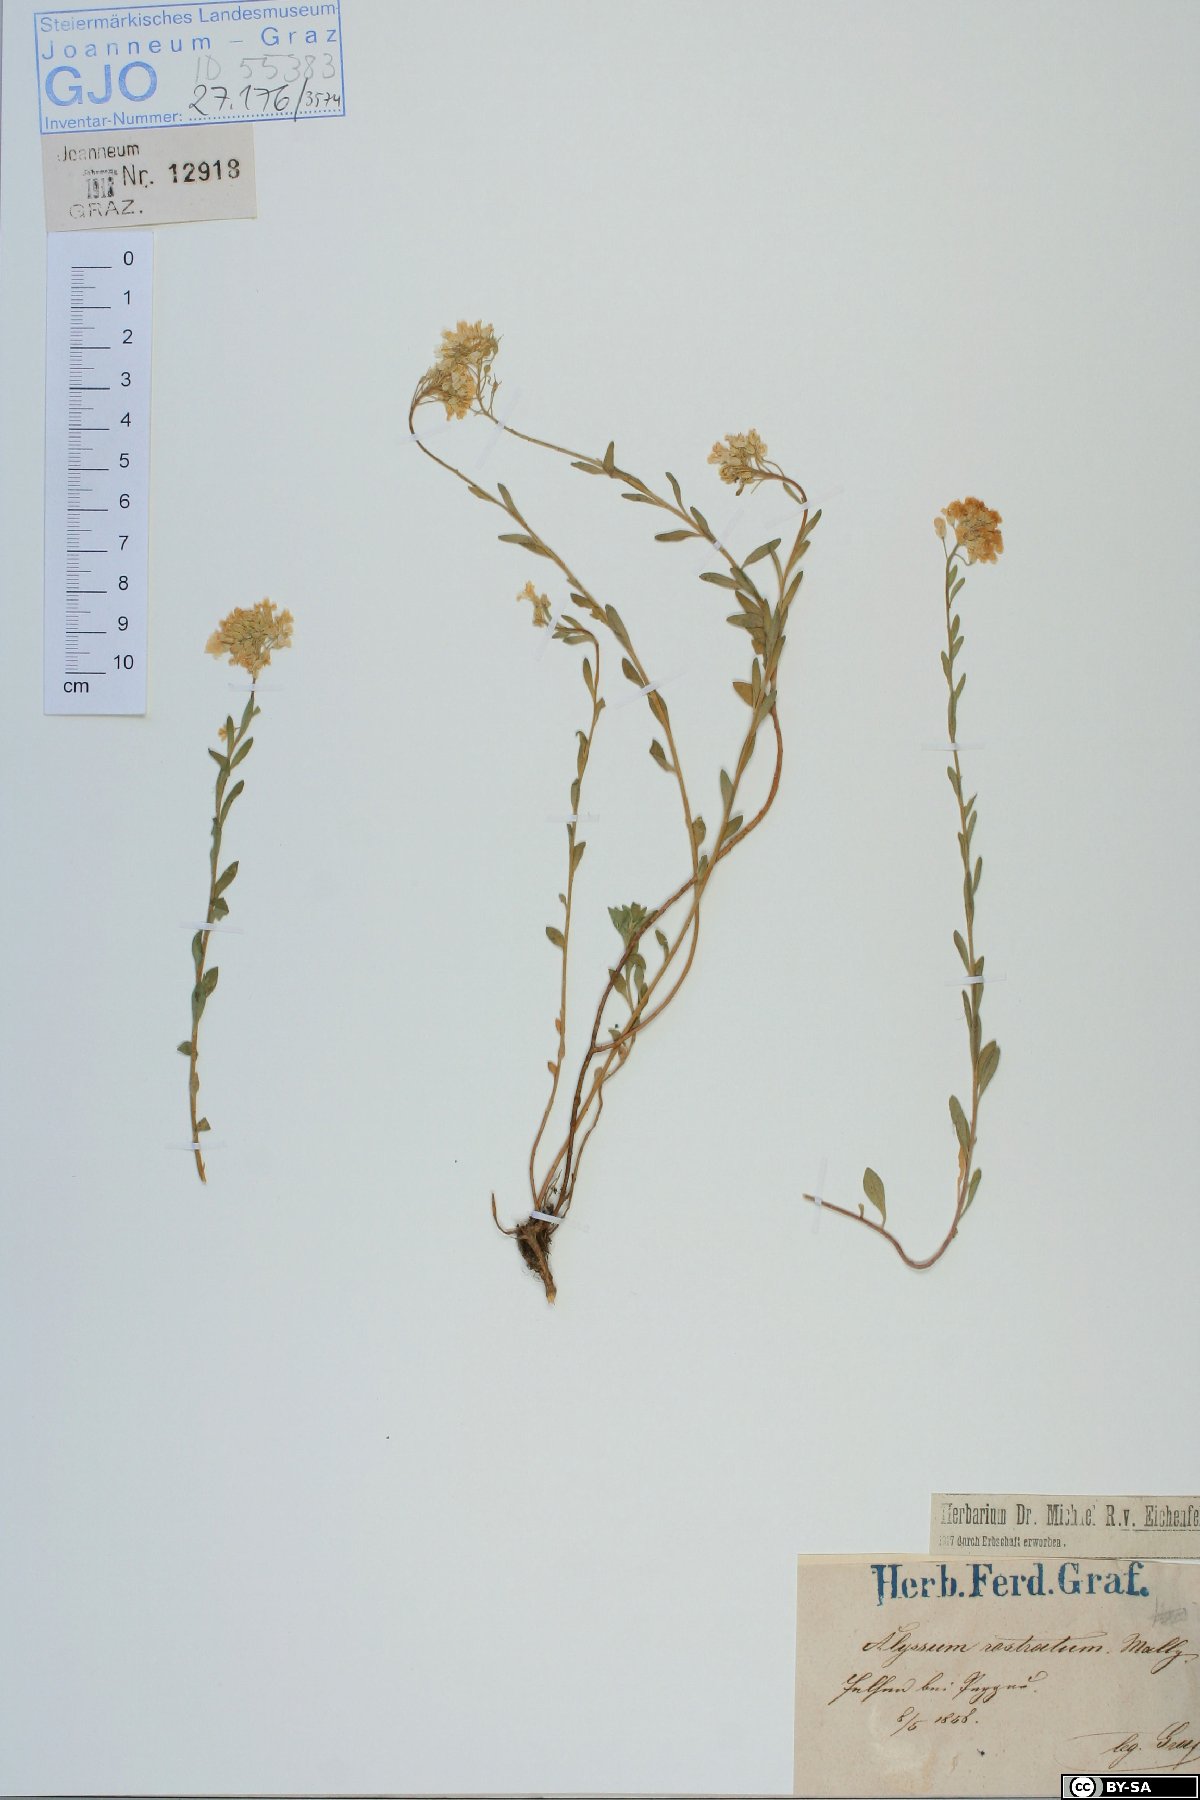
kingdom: Plantae
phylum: Tracheophyta
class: Magnoliopsida
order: Brassicales
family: Brassicaceae
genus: Alyssum
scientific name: Alyssum rostratum
